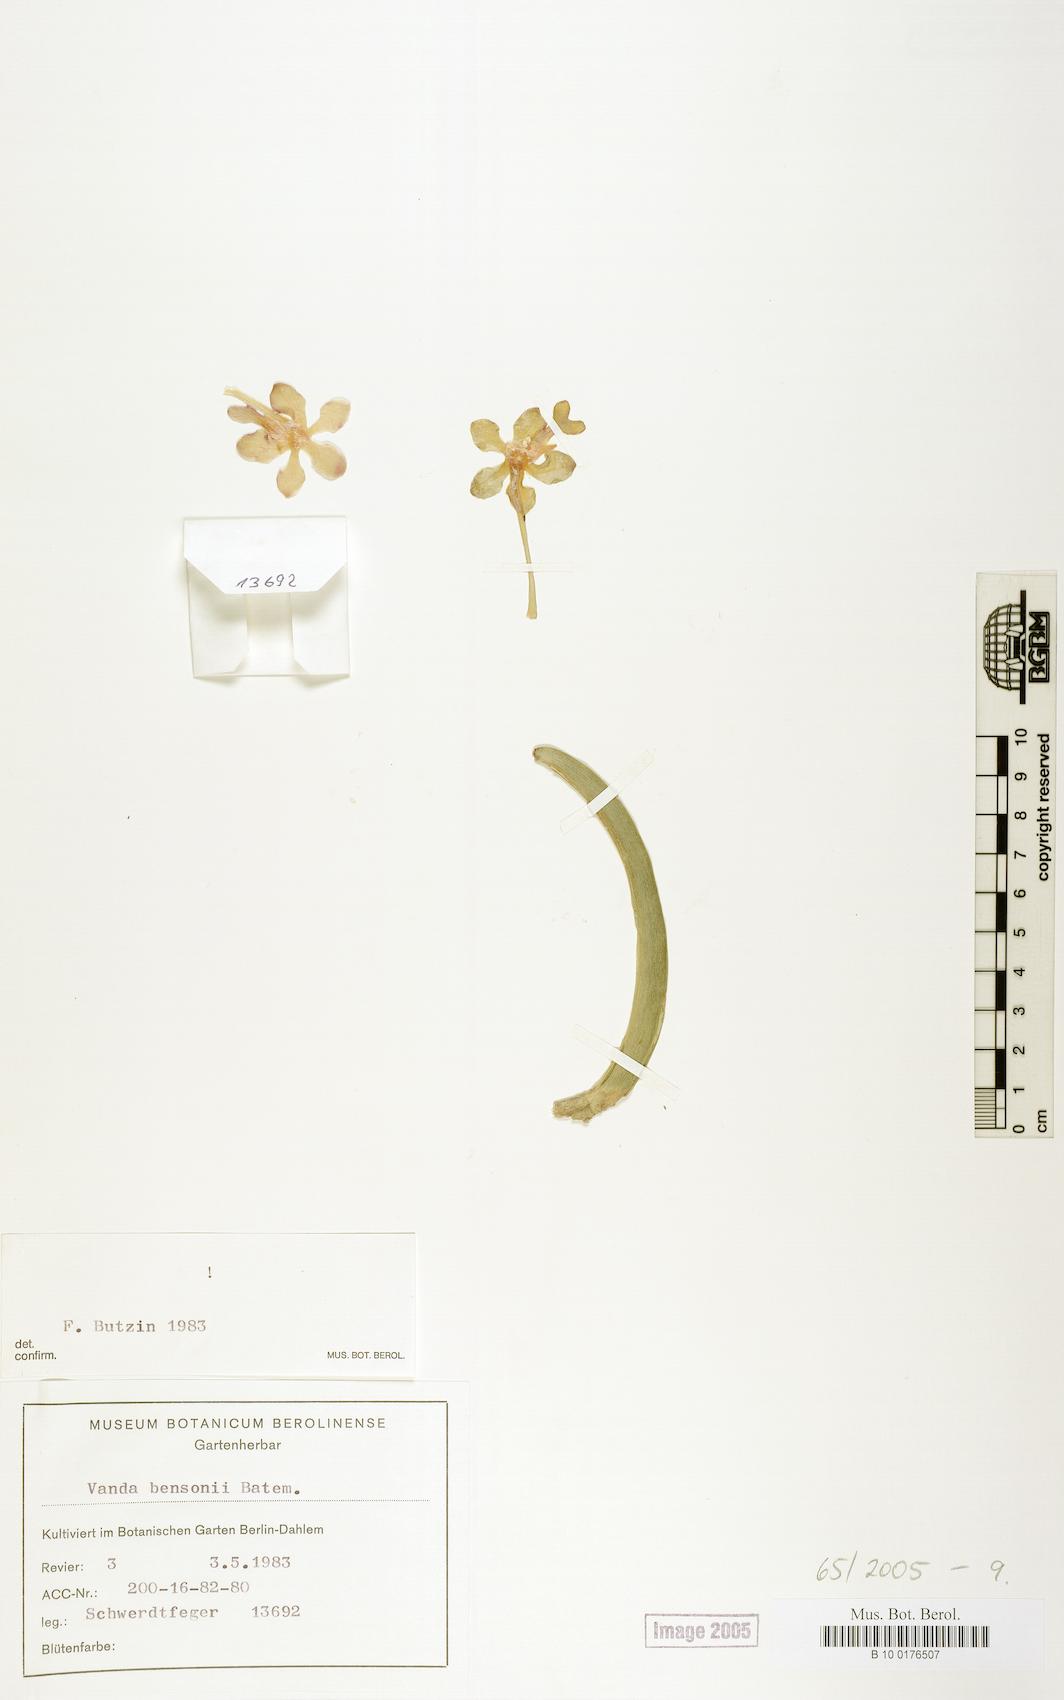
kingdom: Plantae
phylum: Tracheophyta
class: Liliopsida
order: Asparagales
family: Orchidaceae
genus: Vanda
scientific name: Vanda bensonii
